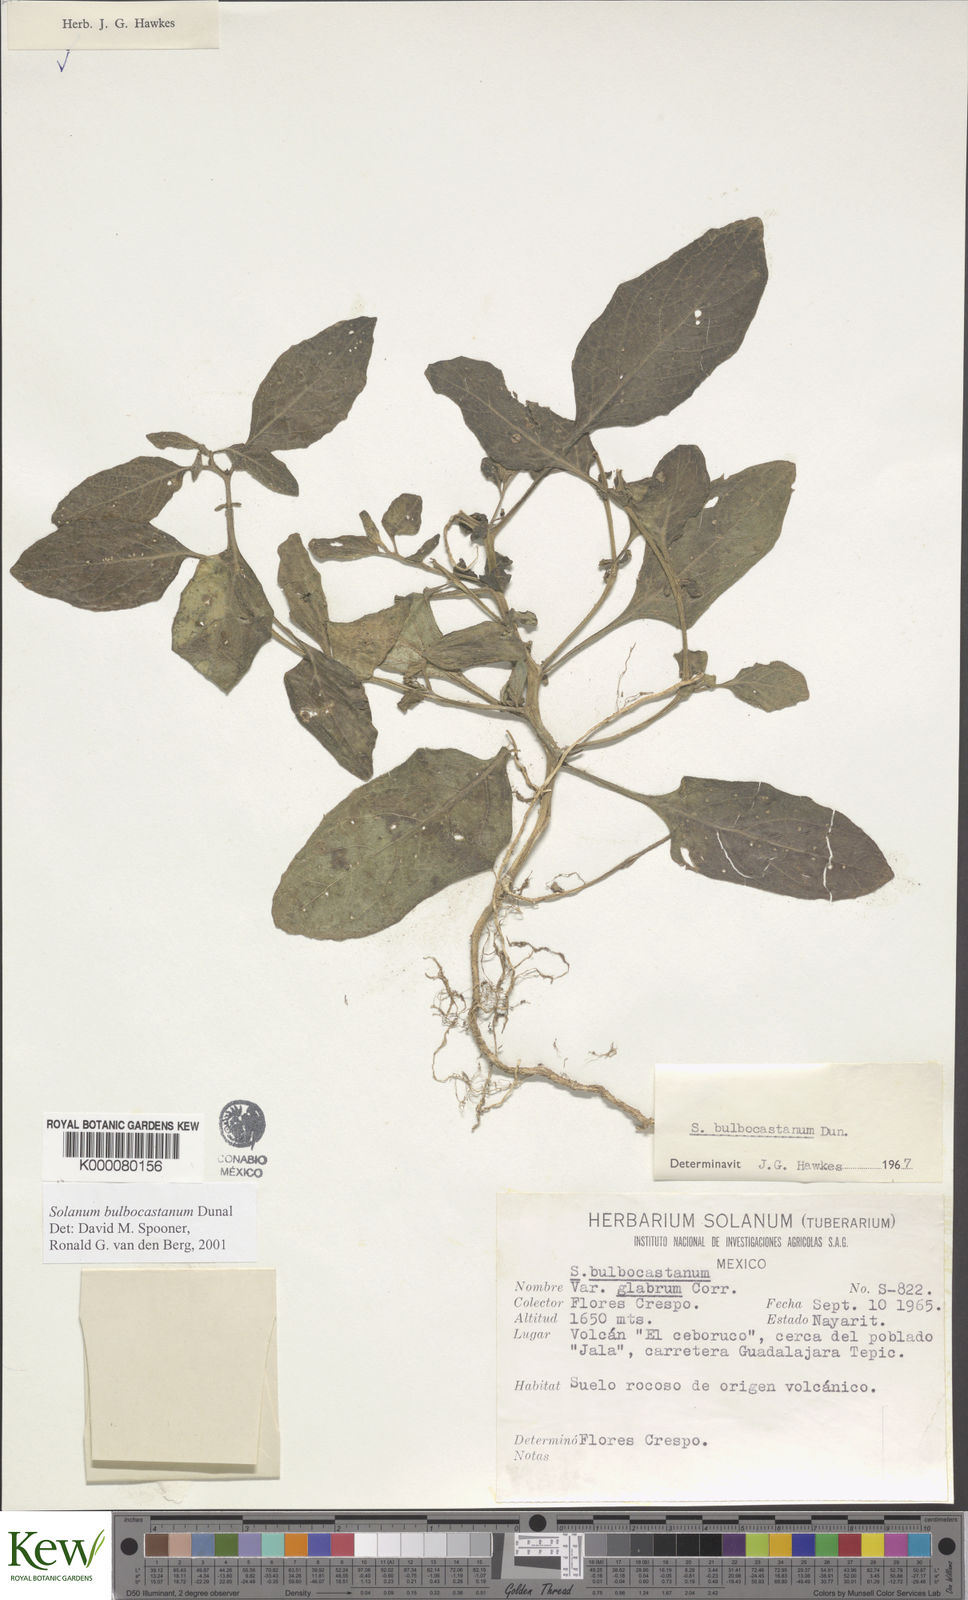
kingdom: Plantae
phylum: Tracheophyta
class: Magnoliopsida
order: Solanales
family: Solanaceae
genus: Solanum
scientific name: Solanum bulbocastanum
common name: Ornamental nightshade
